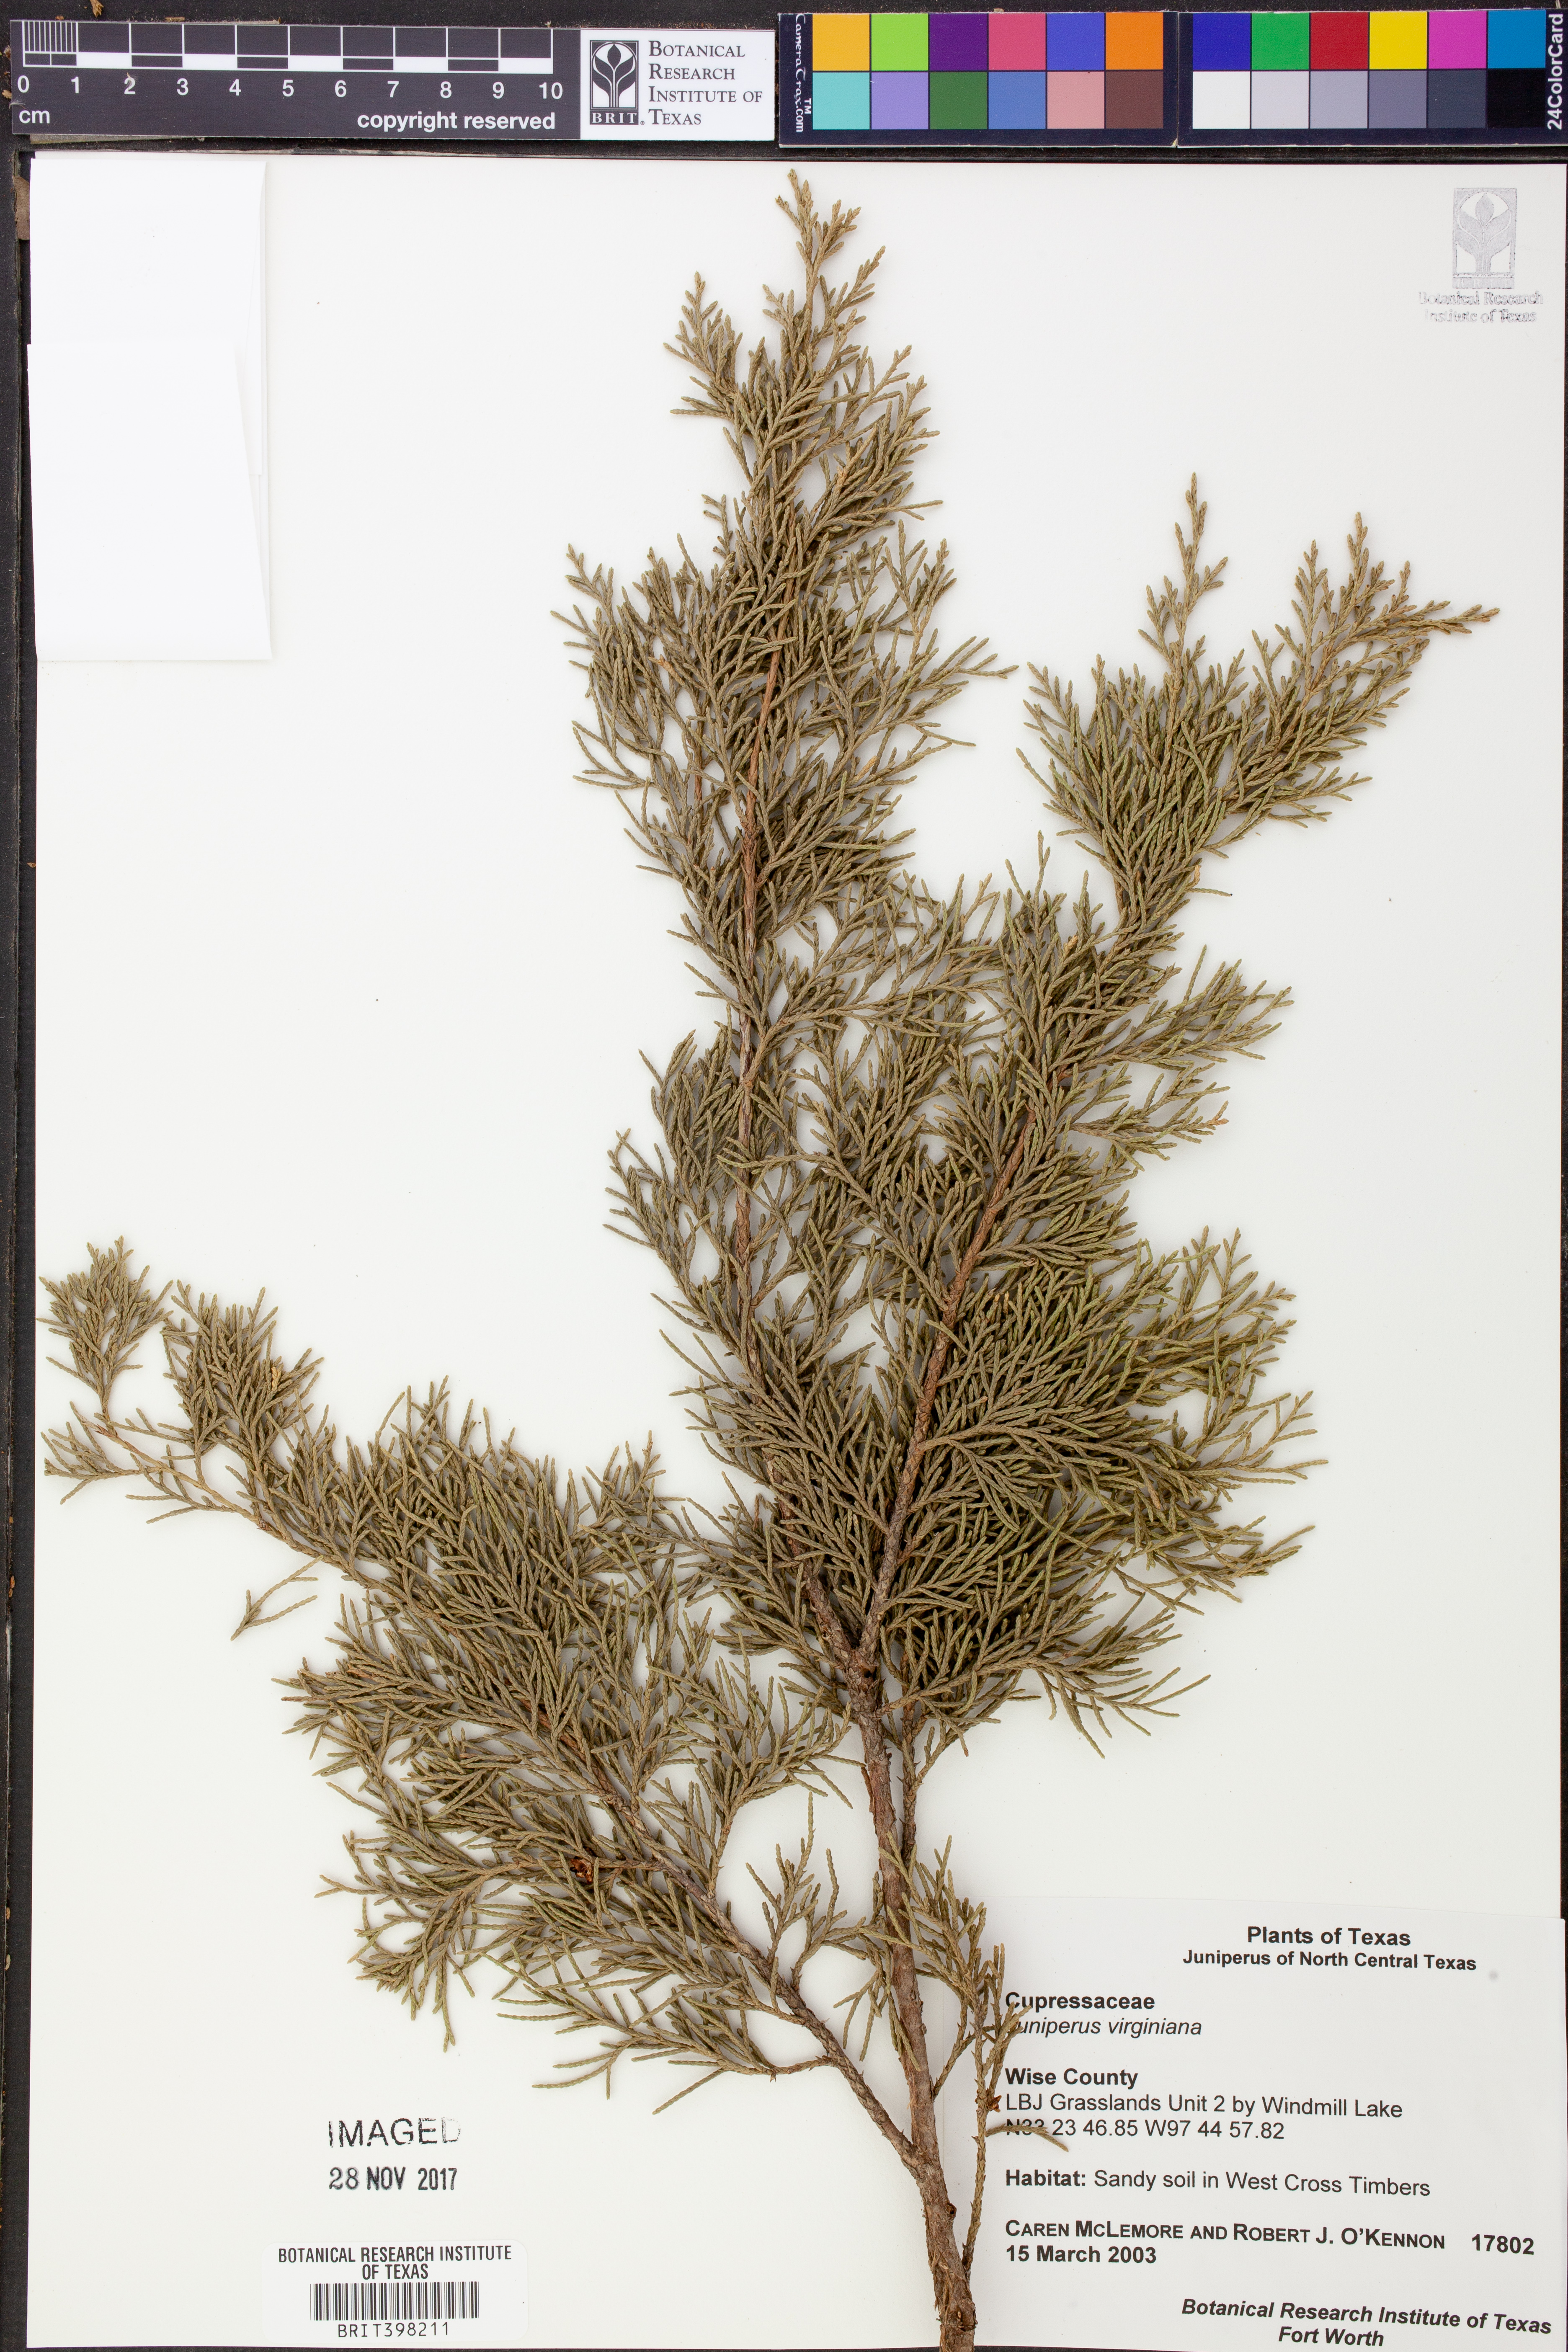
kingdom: Plantae
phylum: Tracheophyta
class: Pinopsida
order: Pinales
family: Cupressaceae
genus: Juniperus
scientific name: Juniperus virginiana
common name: Red juniper
